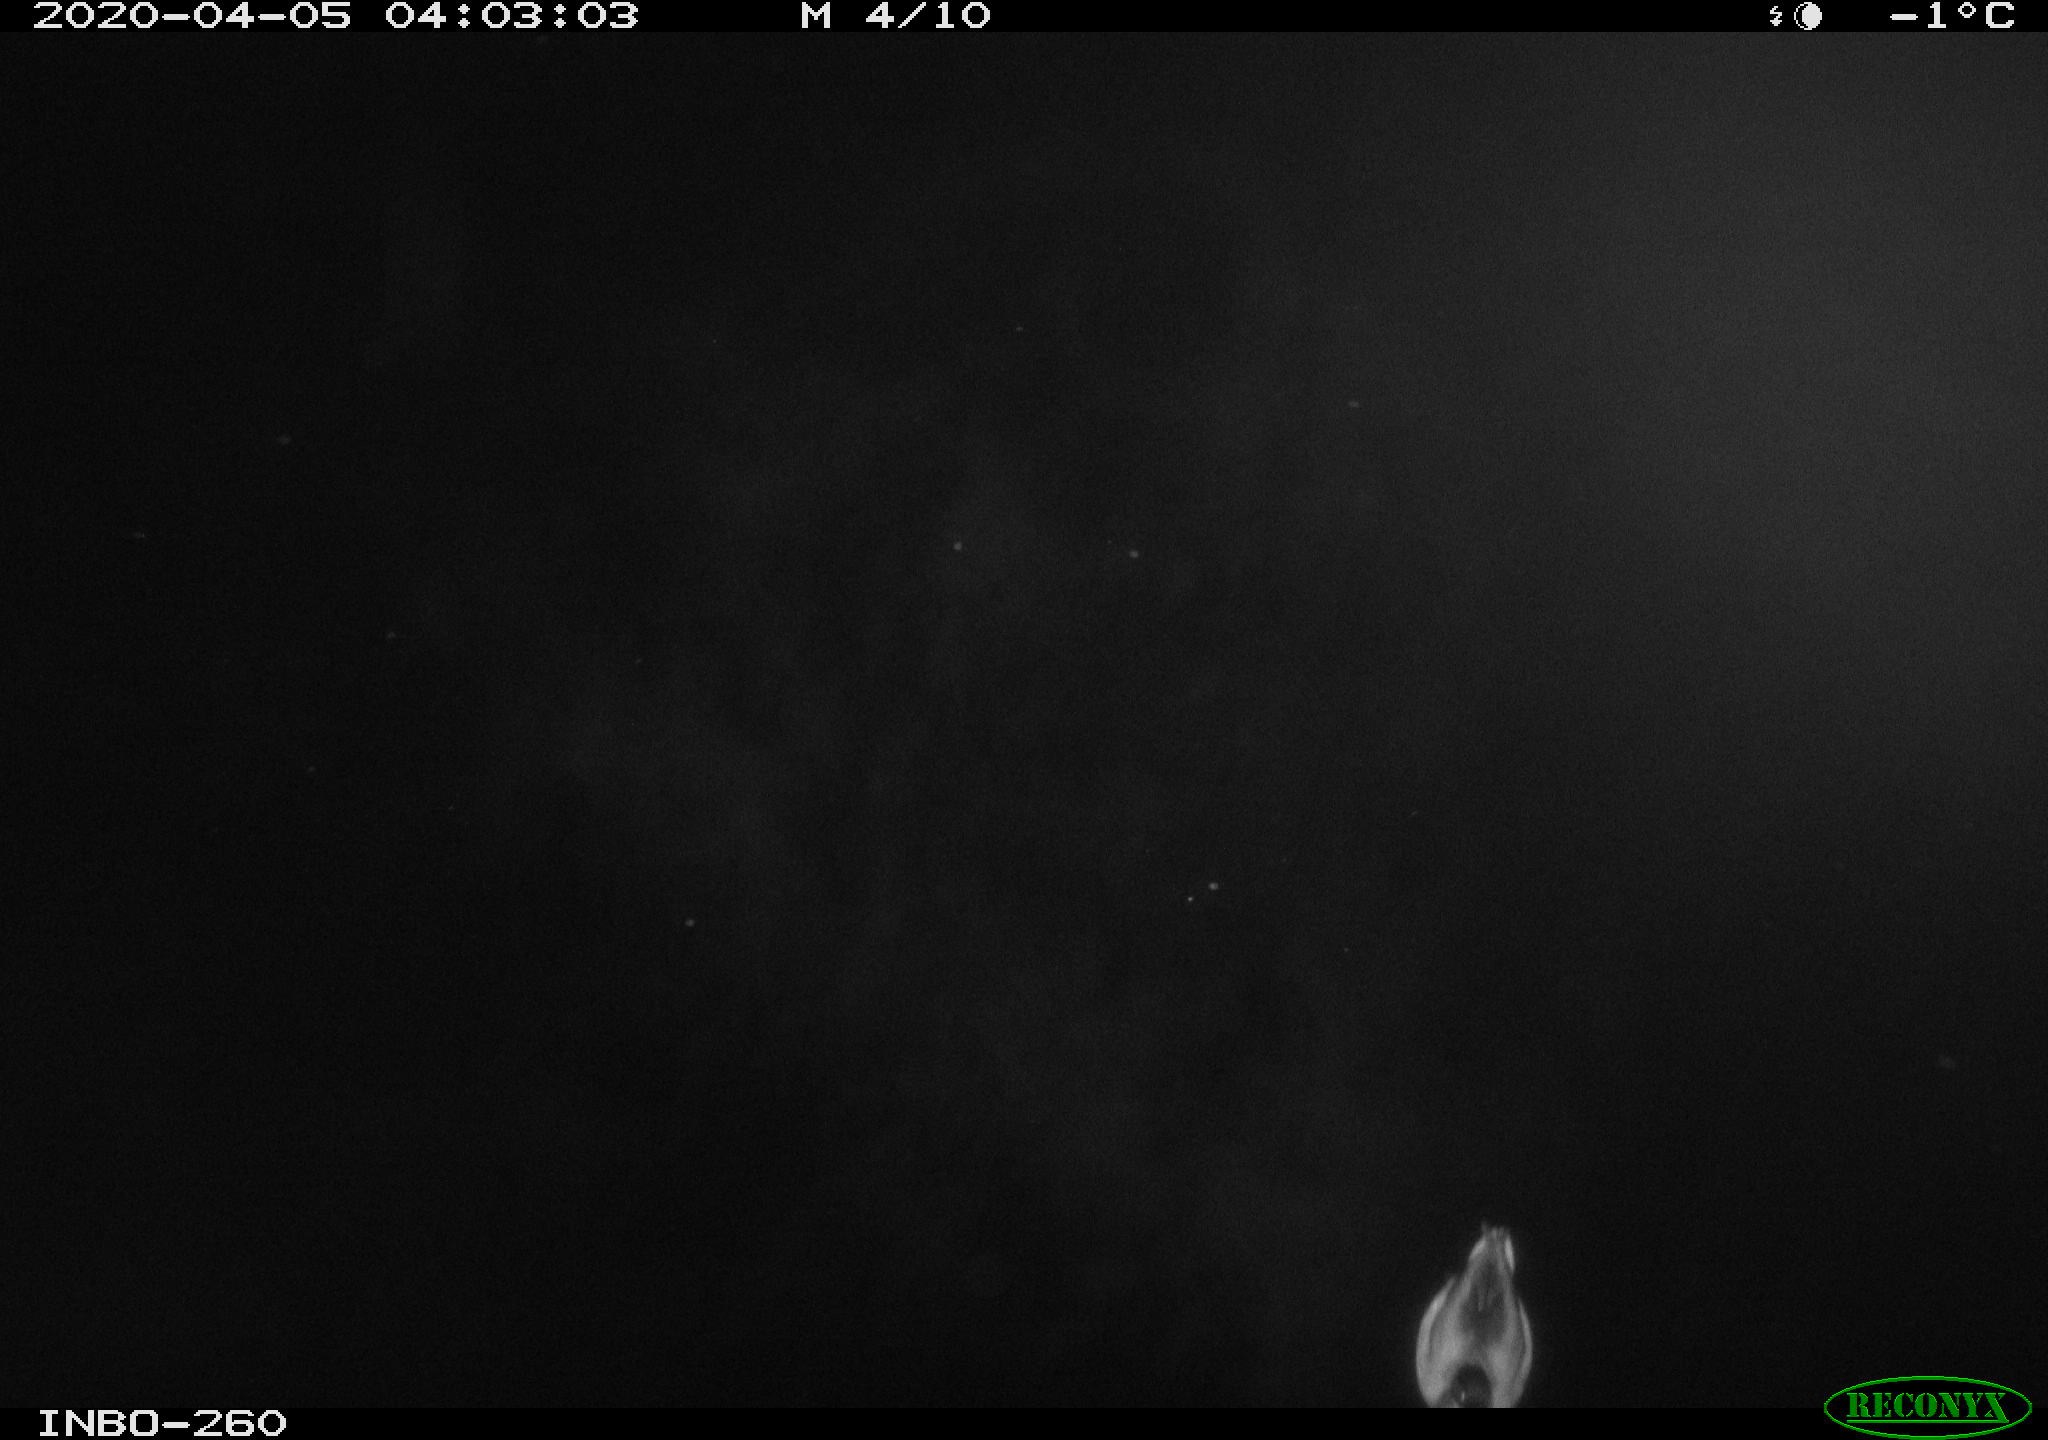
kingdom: Animalia
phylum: Chordata
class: Aves
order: Anseriformes
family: Anatidae
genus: Anas
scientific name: Anas platyrhynchos
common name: Mallard
